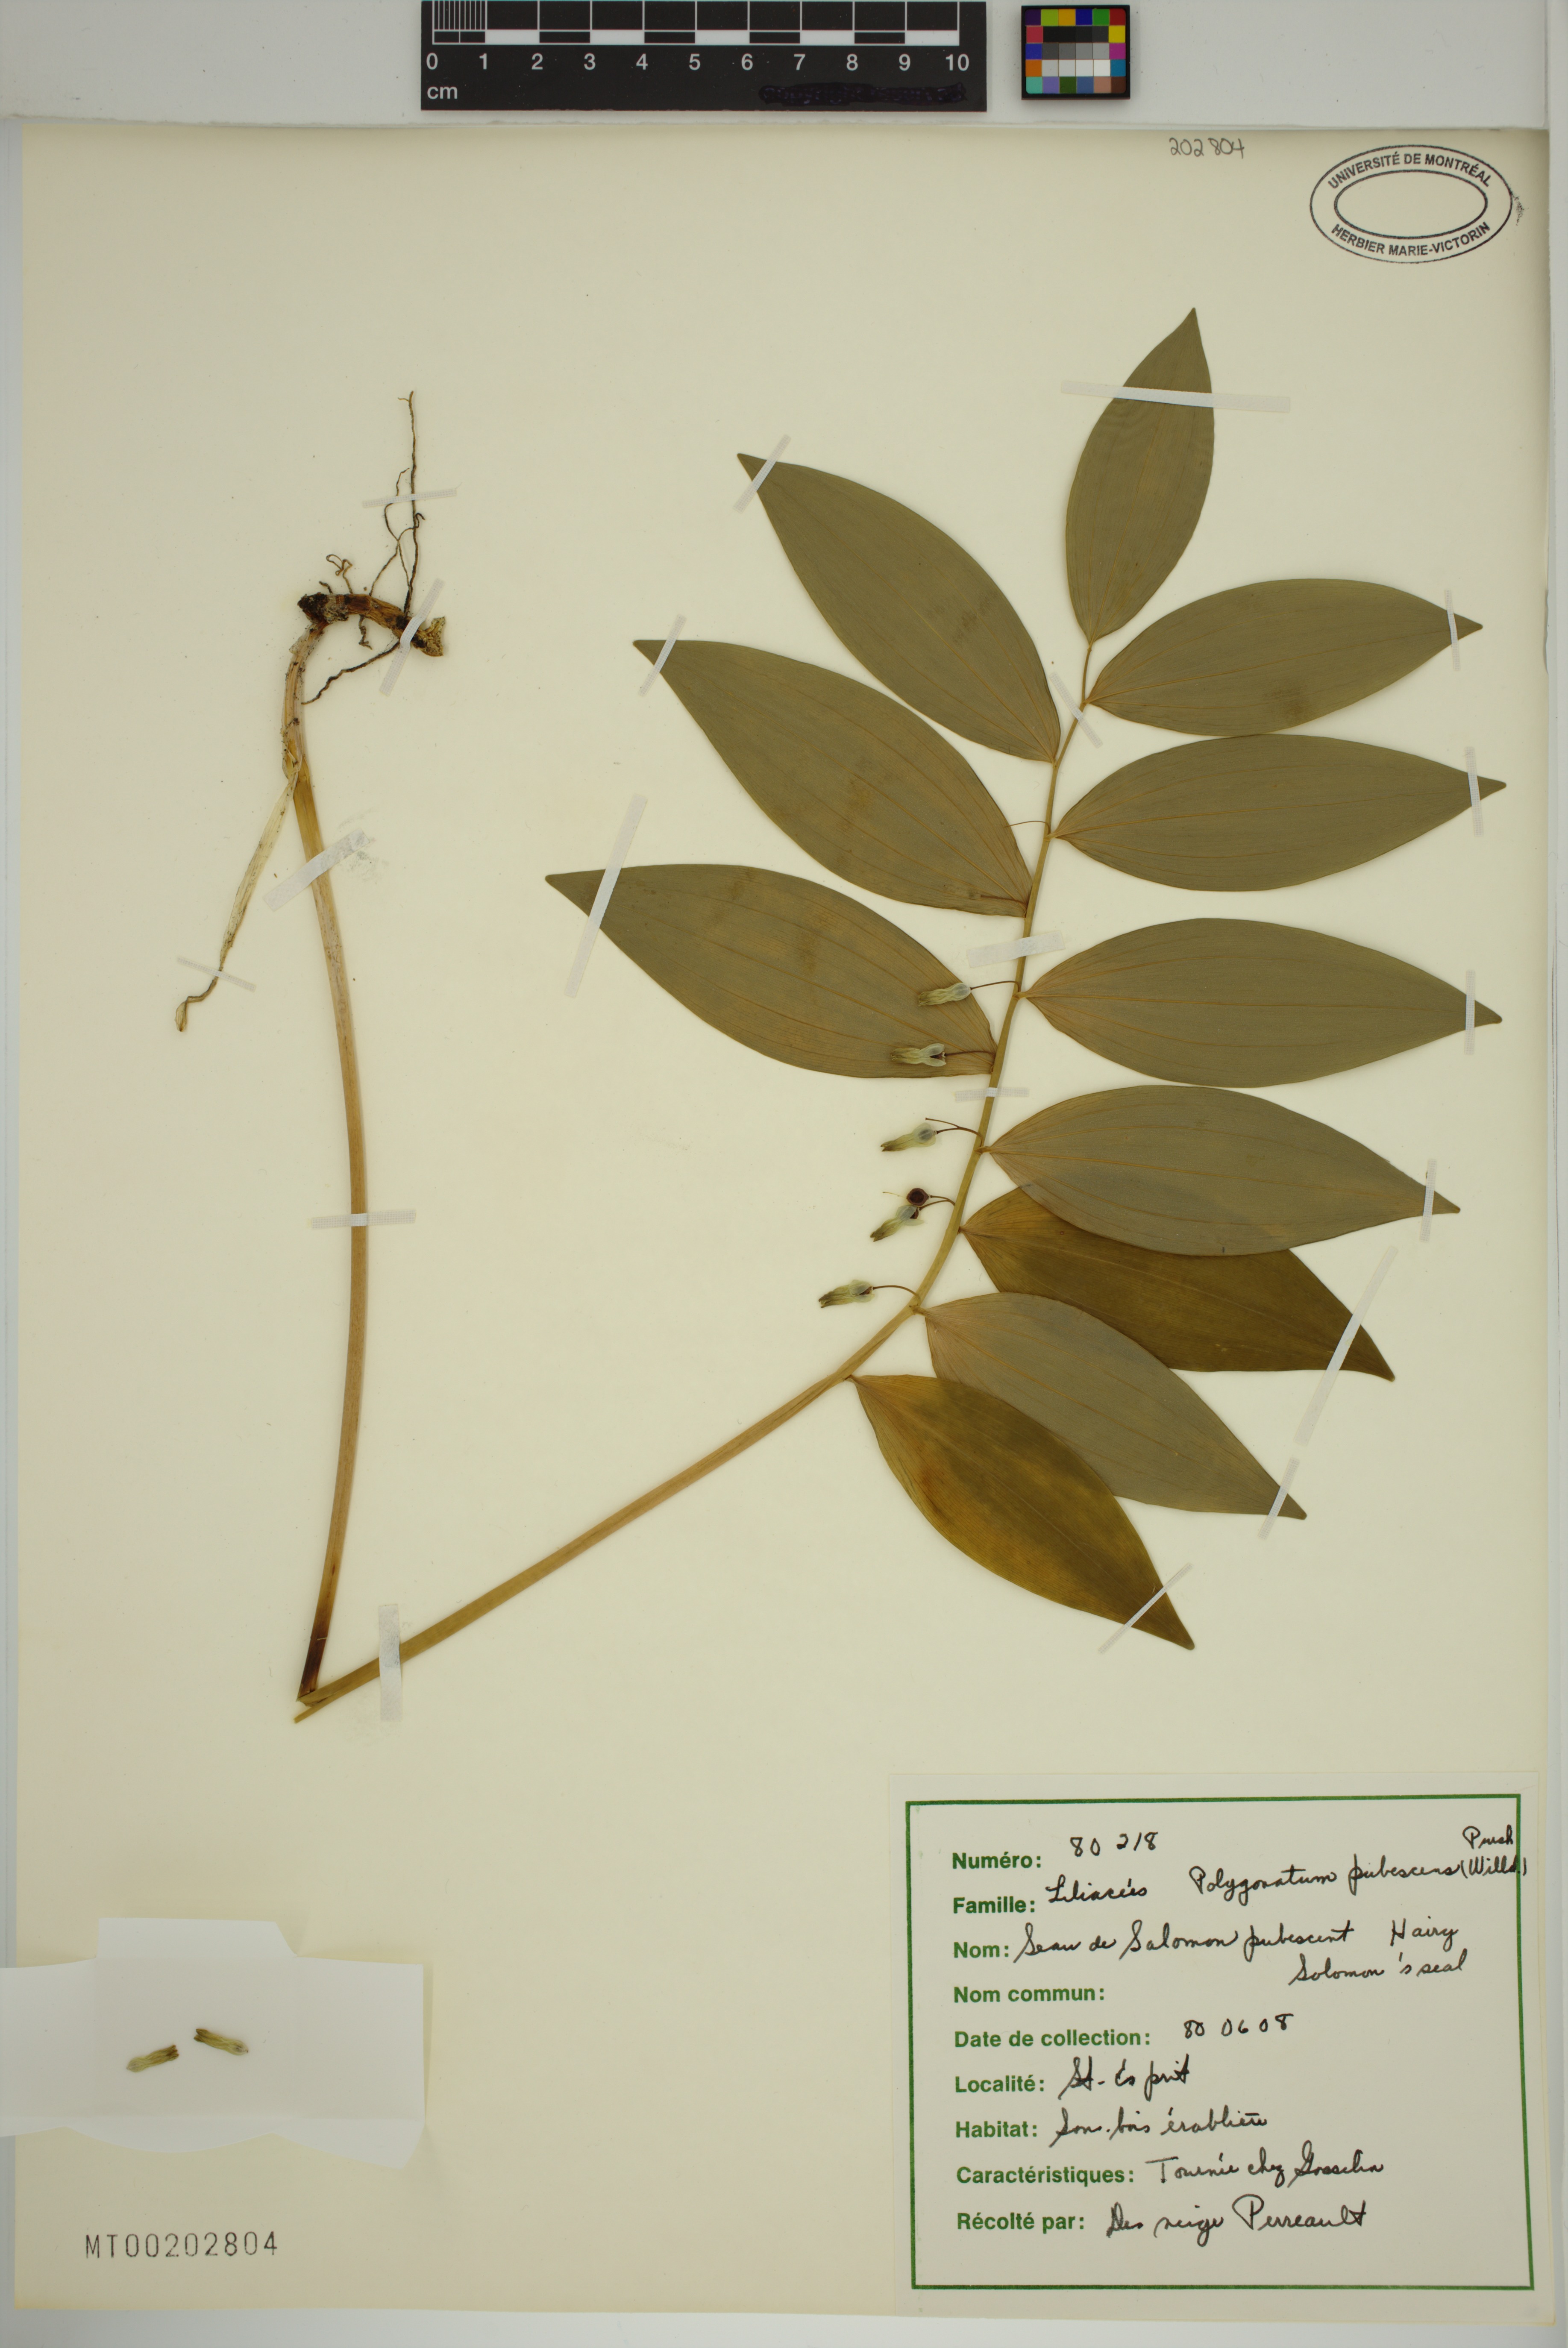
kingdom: Plantae
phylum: Tracheophyta
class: Liliopsida
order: Asparagales
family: Asparagaceae
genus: Polygonatum
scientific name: Polygonatum pubescens
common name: Downy solomon's seal
